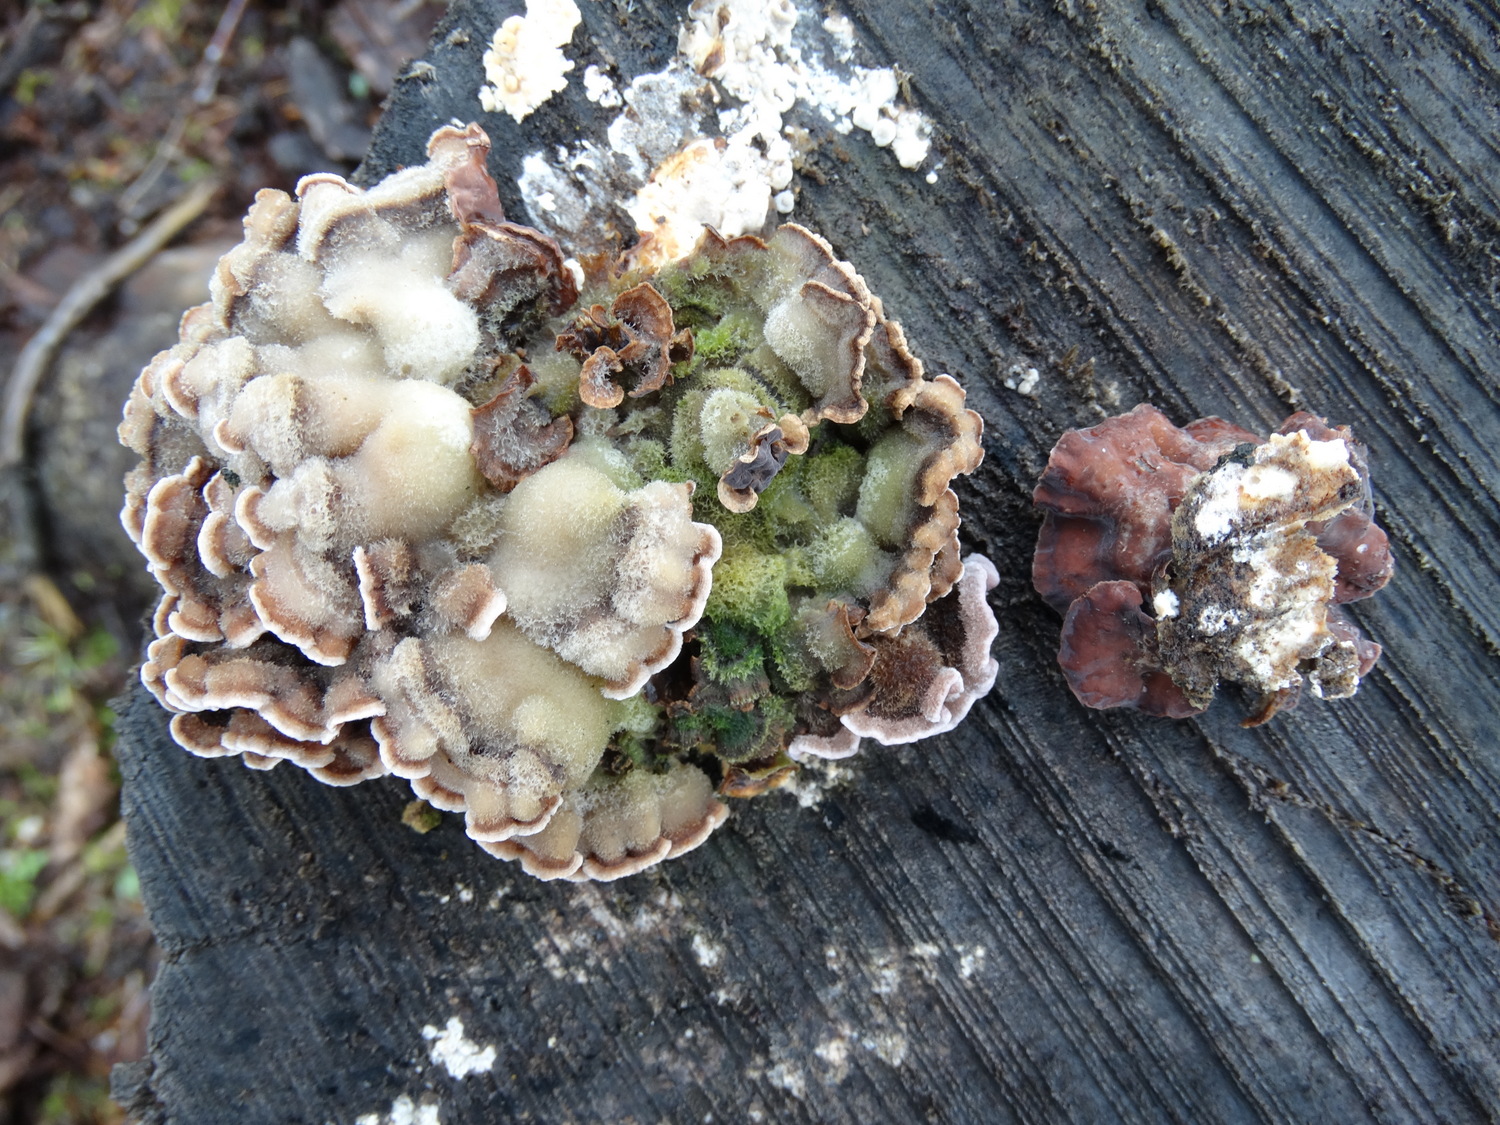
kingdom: Fungi
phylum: Basidiomycota
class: Agaricomycetes
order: Agaricales
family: Cyphellaceae
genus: Chondrostereum
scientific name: Chondrostereum purpureum
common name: purpurlædersvamp
